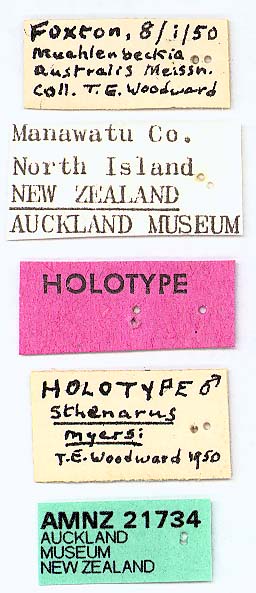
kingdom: Animalia
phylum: Arthropoda
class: Insecta
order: Hemiptera
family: Miridae
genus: Xiphoides
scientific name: Xiphoides myersi
